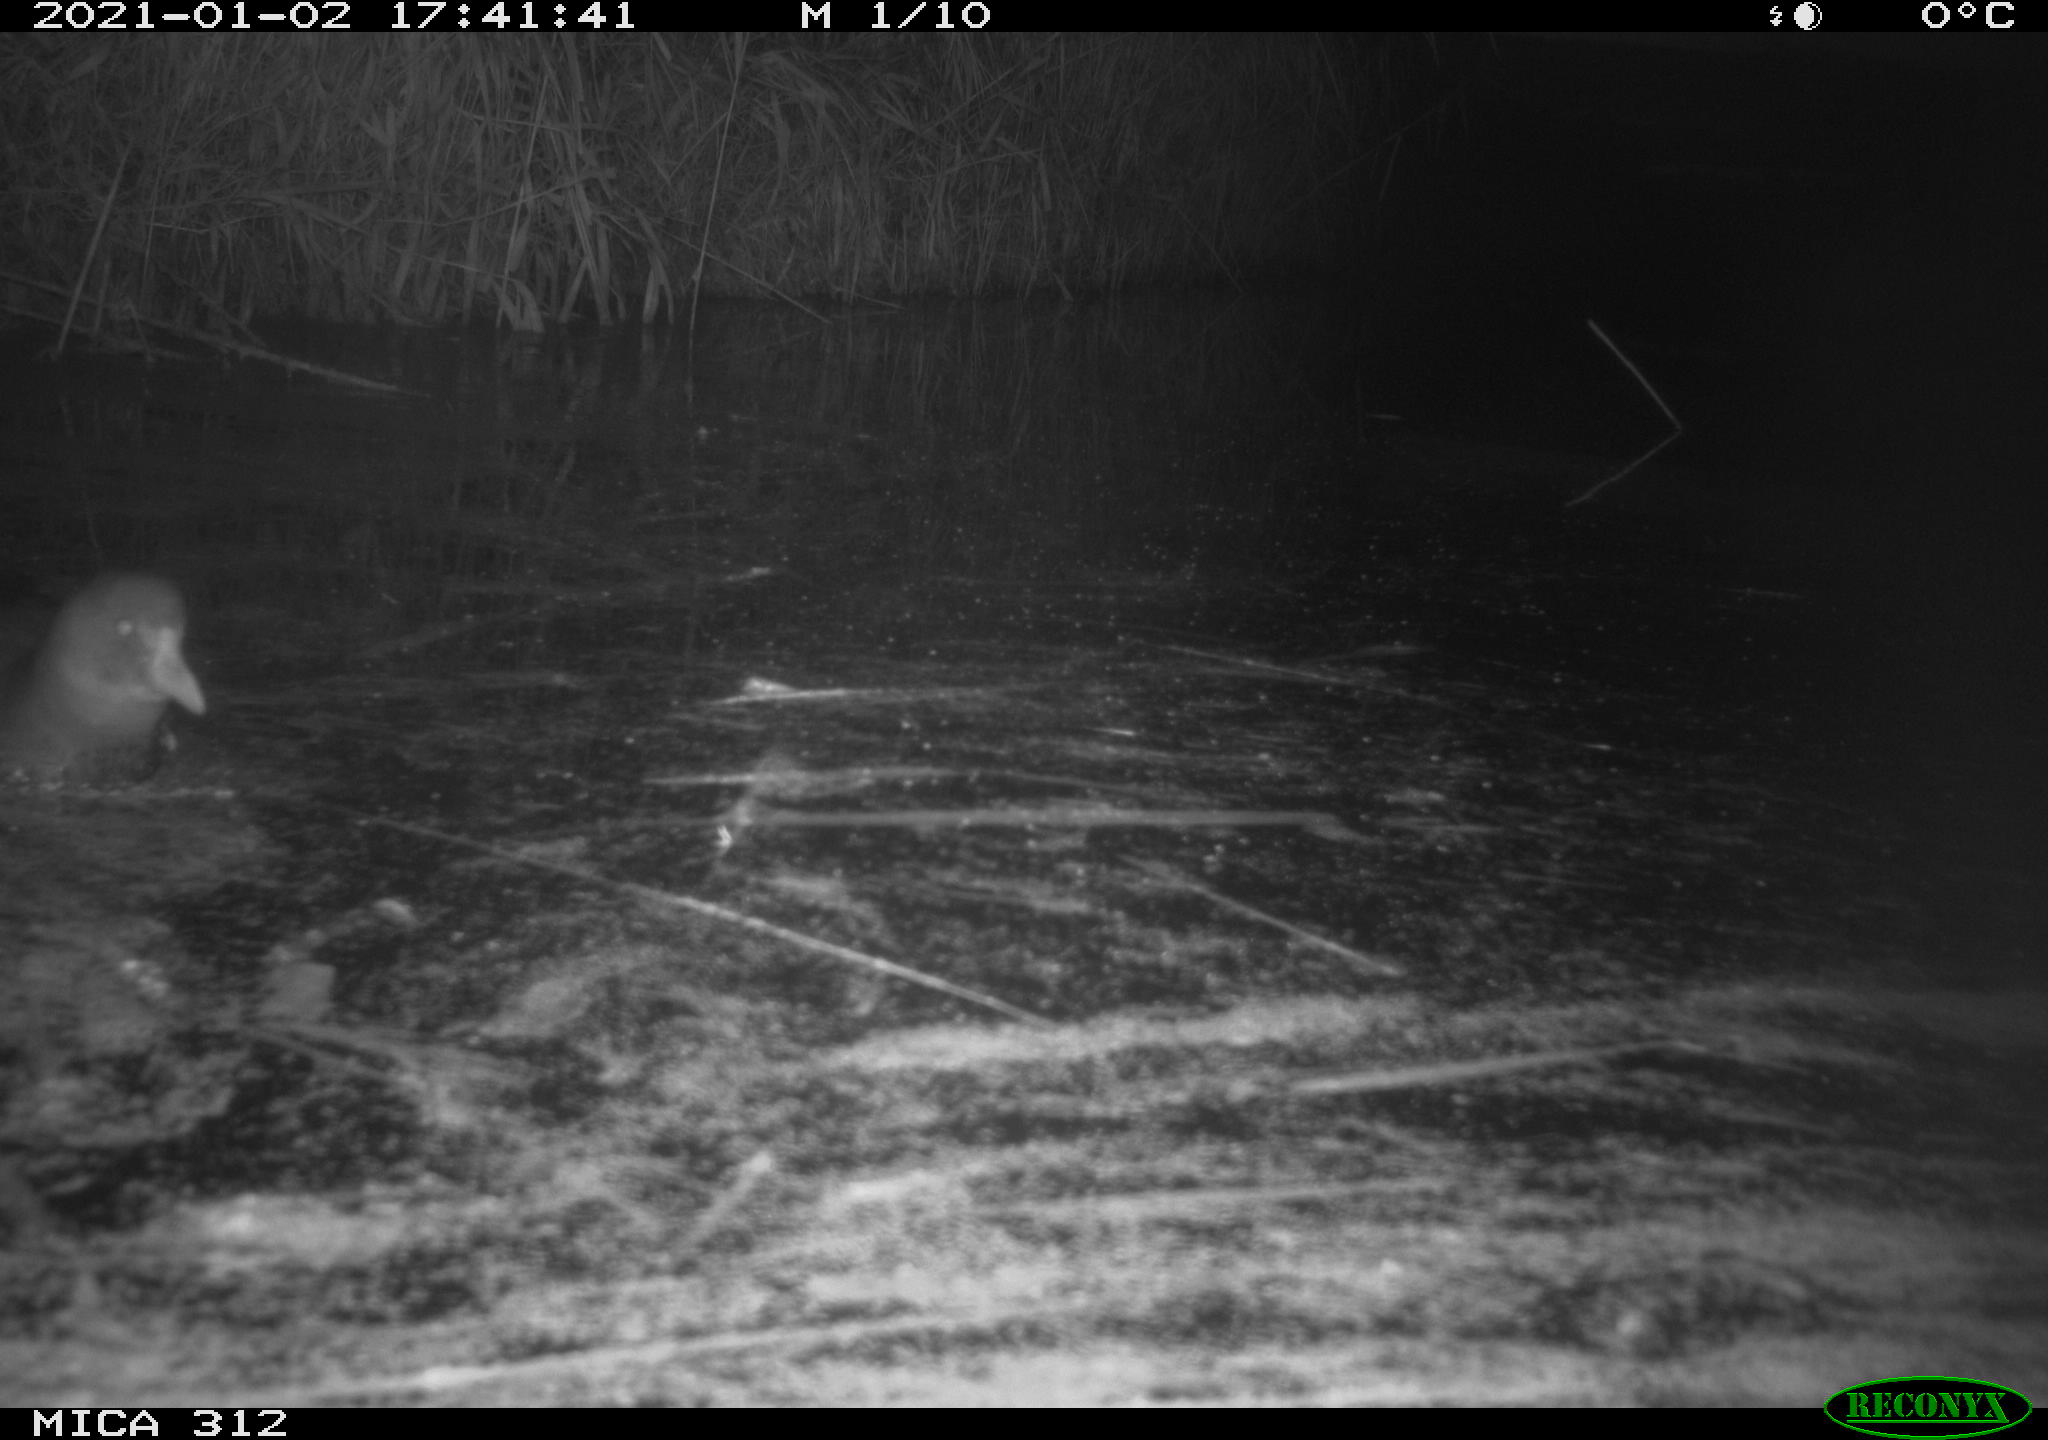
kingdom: Animalia
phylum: Chordata
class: Aves
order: Gruiformes
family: Rallidae
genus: Gallinula
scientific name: Gallinula chloropus
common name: Common moorhen
